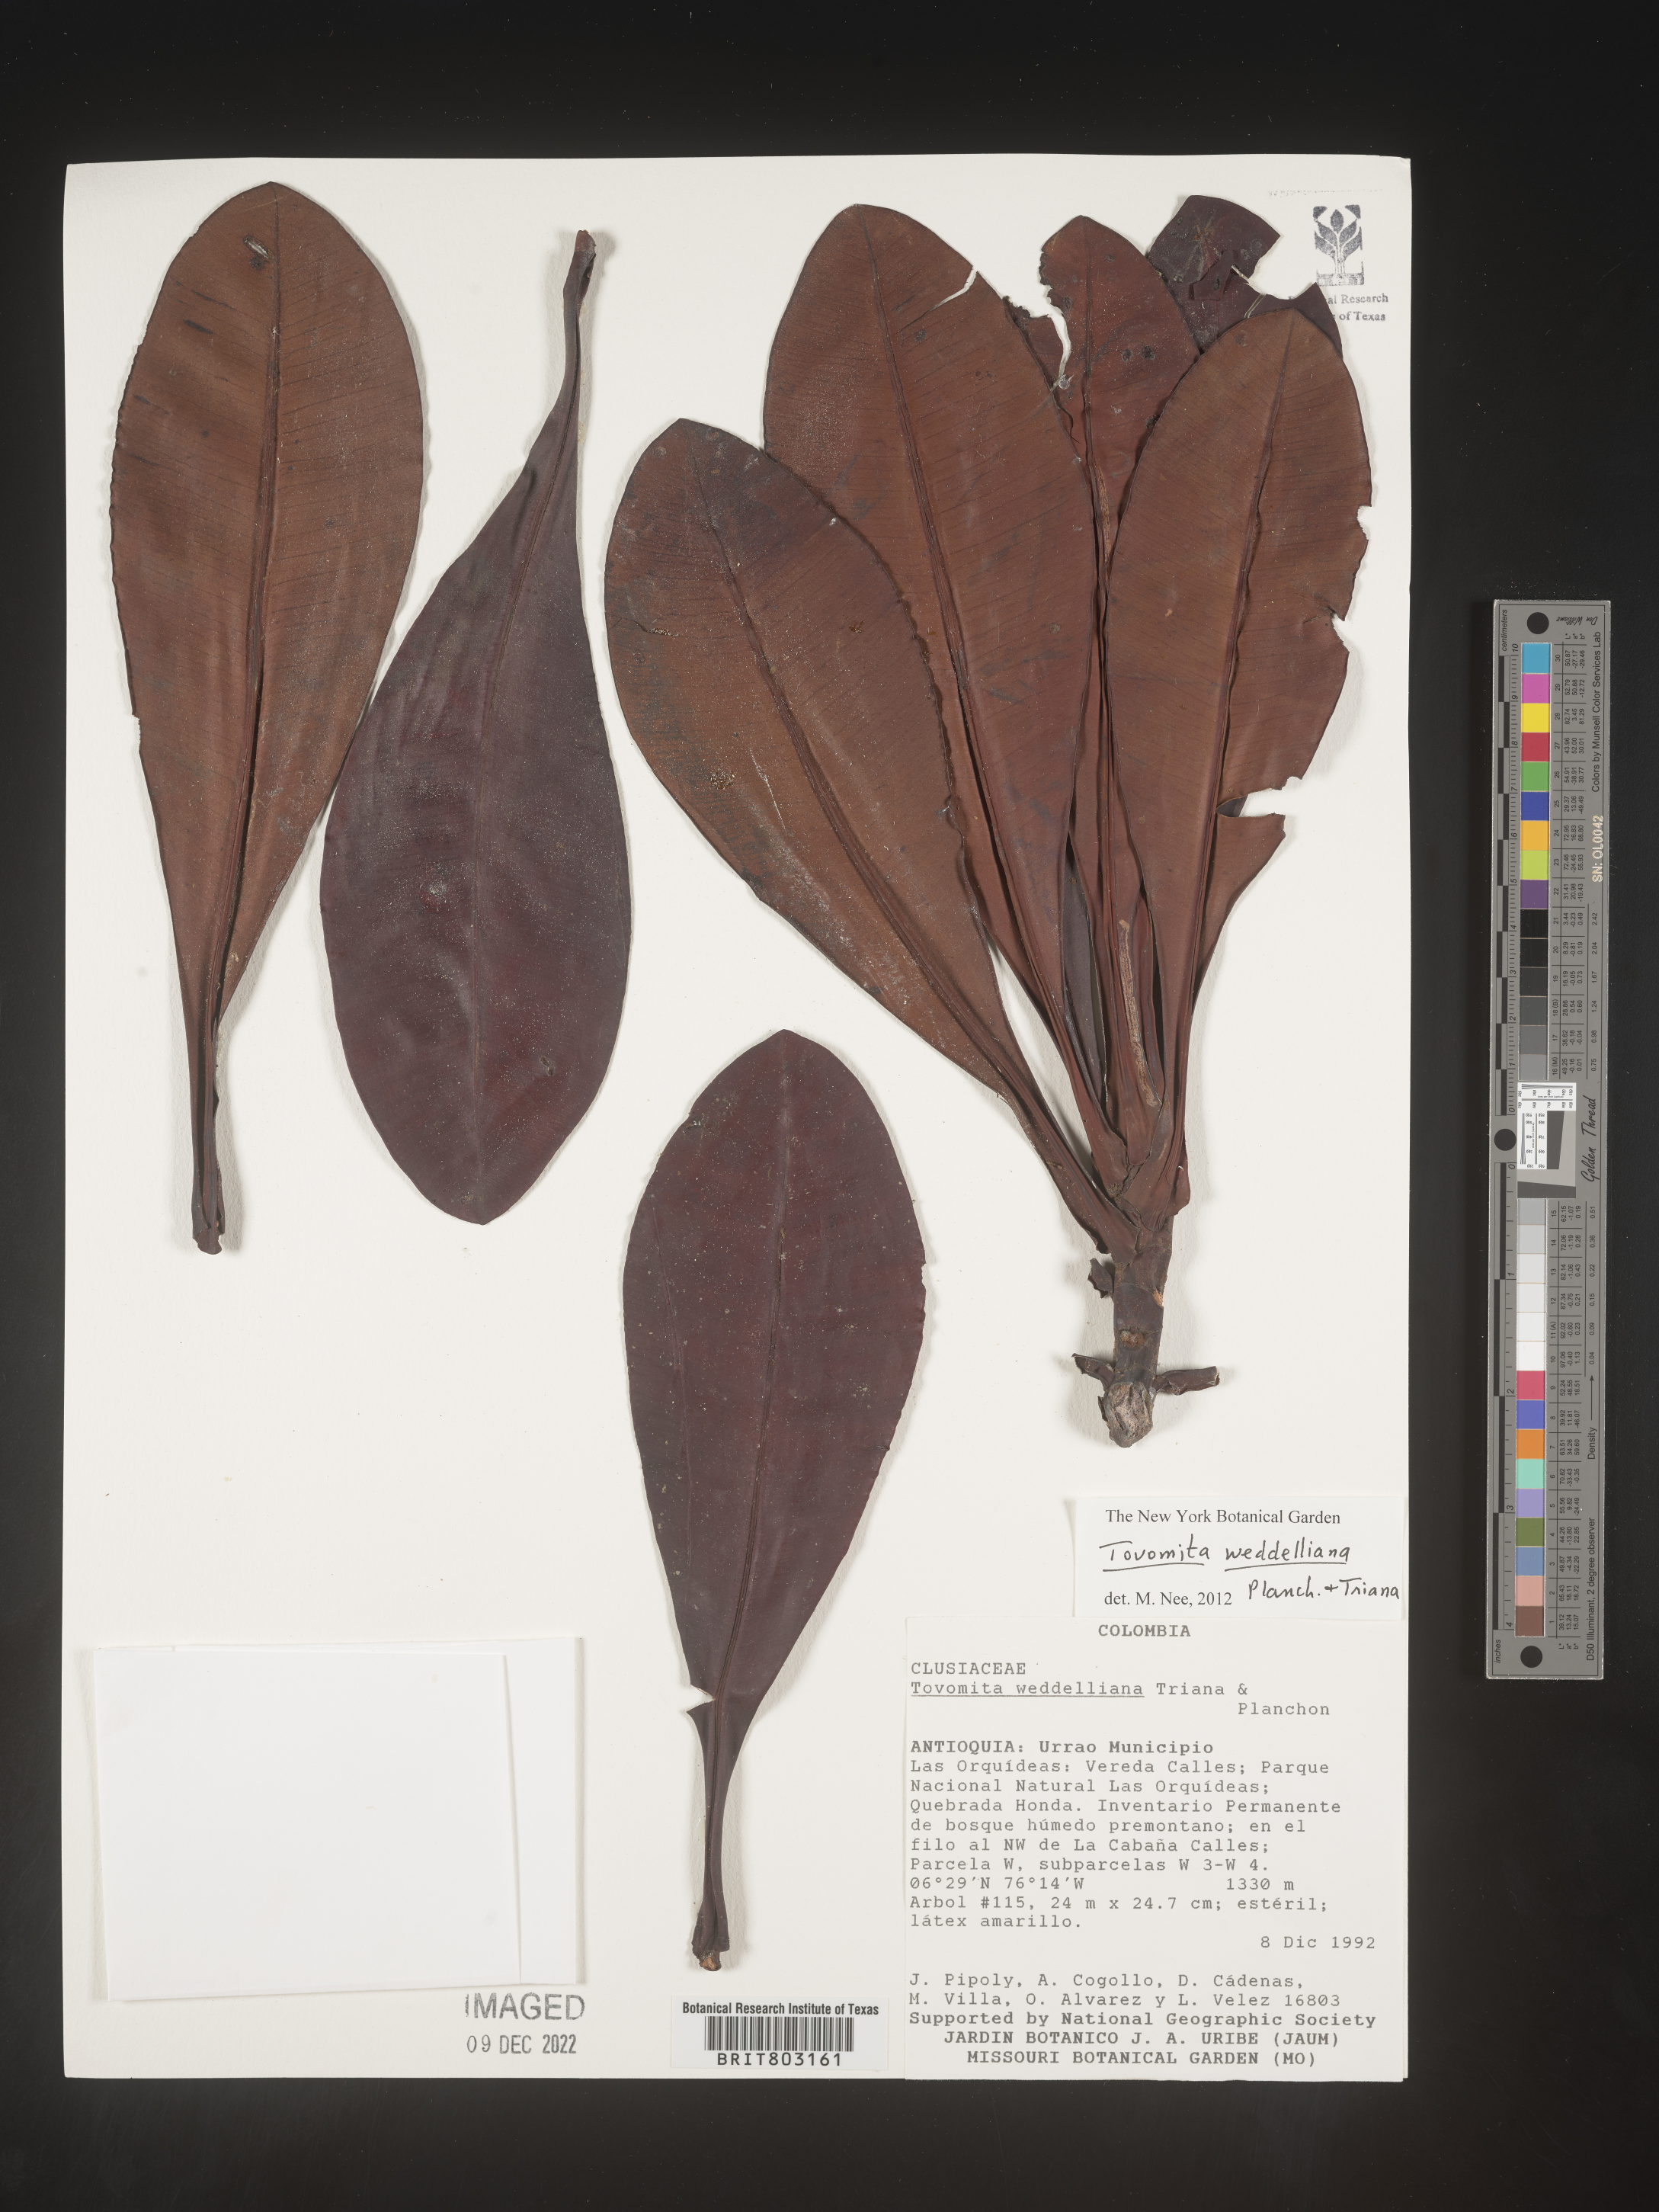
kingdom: Plantae
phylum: Tracheophyta
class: Magnoliopsida
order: Malpighiales
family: Clusiaceae
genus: Arawakia
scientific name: Arawakia weddelliana
